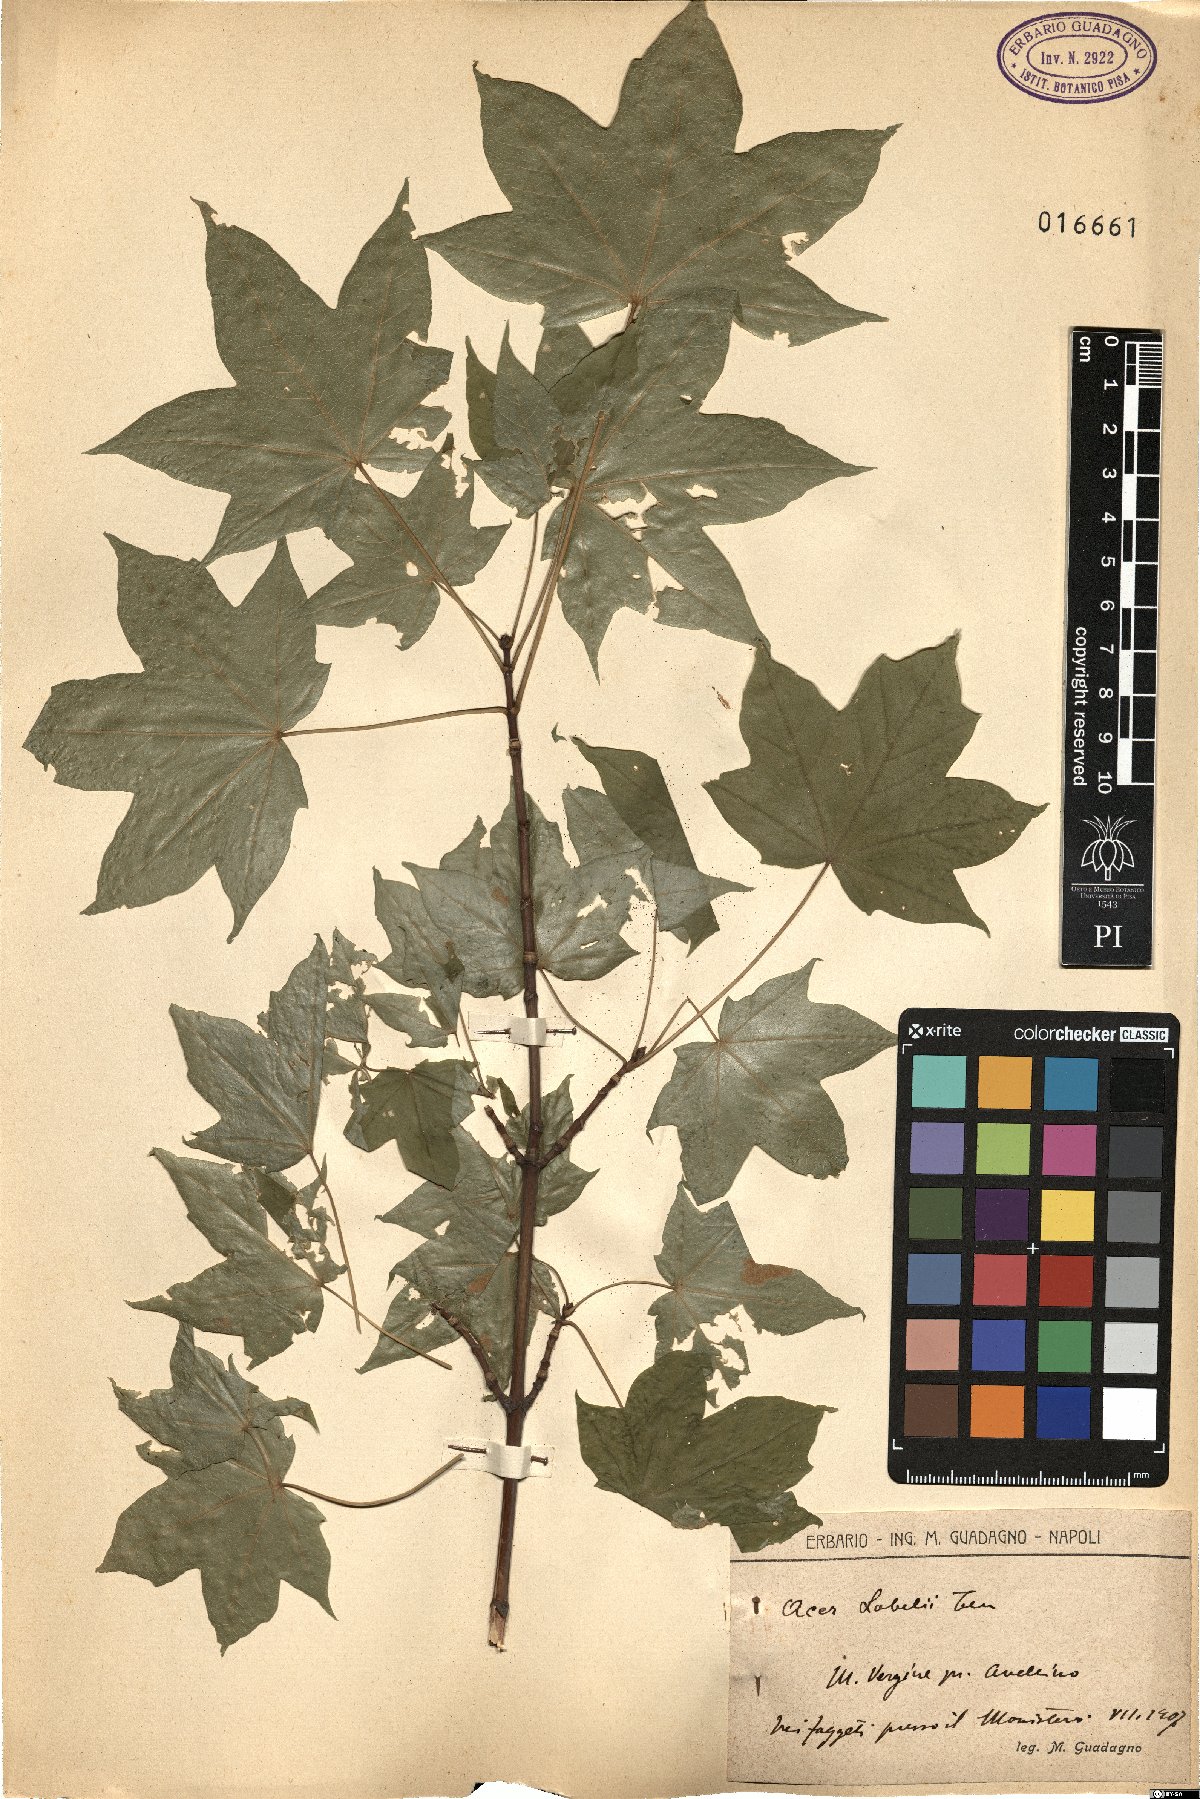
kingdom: Plantae
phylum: Tracheophyta
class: Magnoliopsida
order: Sapindales
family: Sapindaceae
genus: Acer
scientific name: Acer lobelii
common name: Lobel's maple
